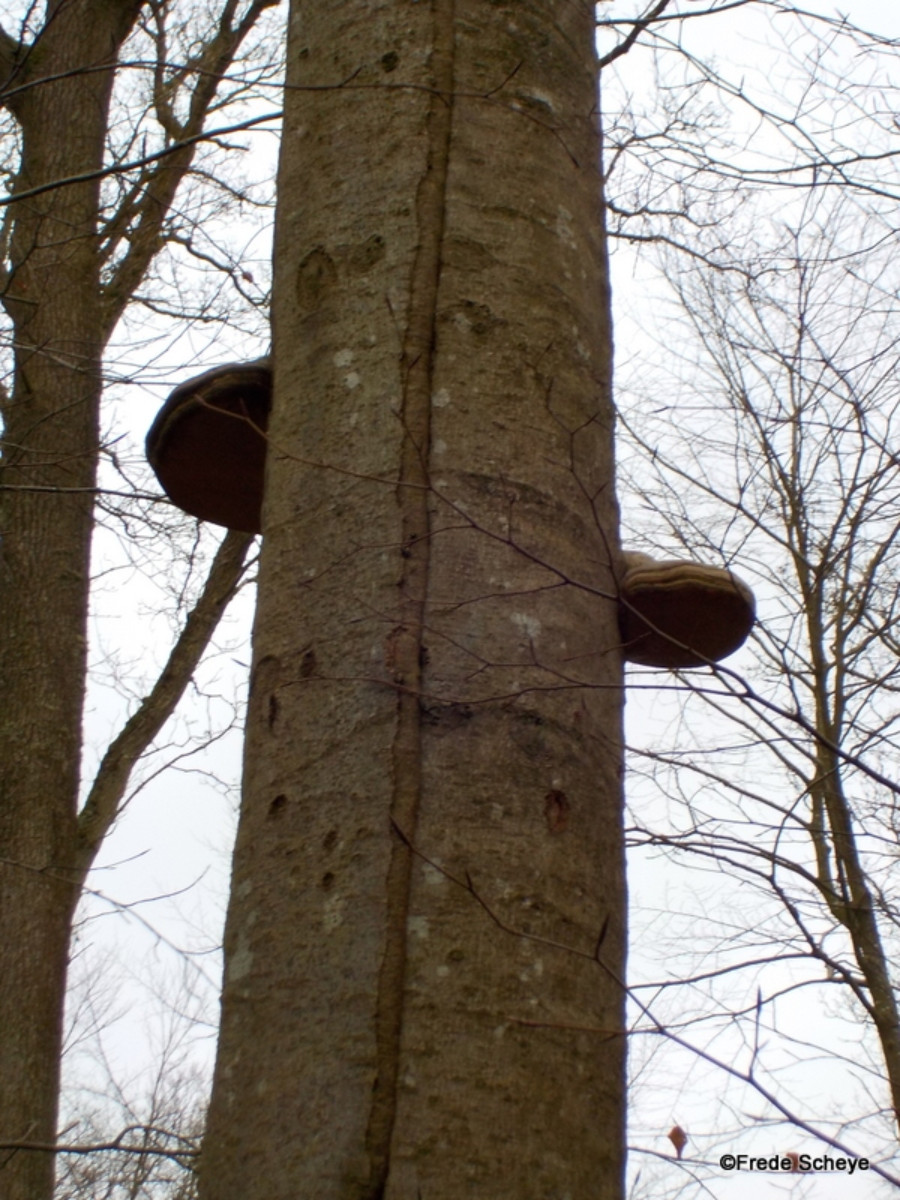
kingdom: Fungi
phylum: Basidiomycota
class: Agaricomycetes
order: Polyporales
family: Polyporaceae
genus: Fomes
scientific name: Fomes fomentarius
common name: tøndersvamp
